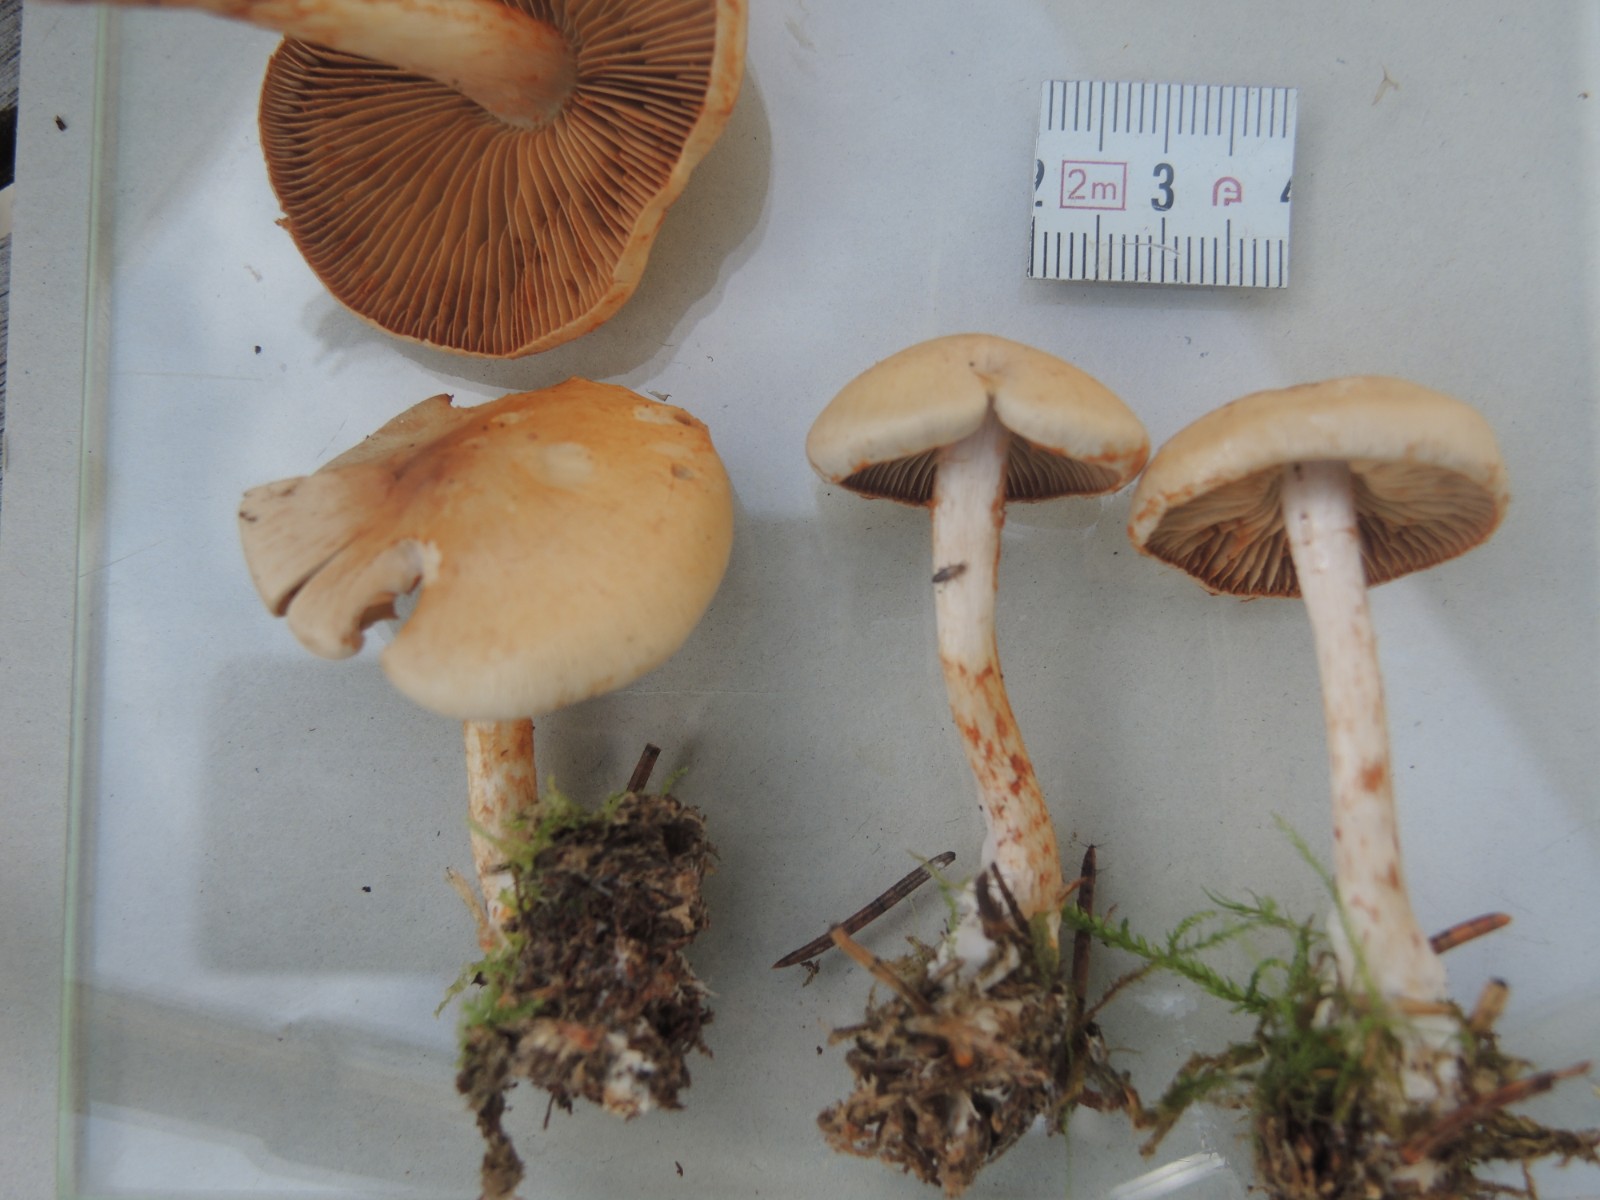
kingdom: Fungi
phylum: Basidiomycota
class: Agaricomycetes
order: Agaricales
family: Cortinariaceae
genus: Cortinarius
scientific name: Cortinarius spilomeus
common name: rødfnugget slørhat
